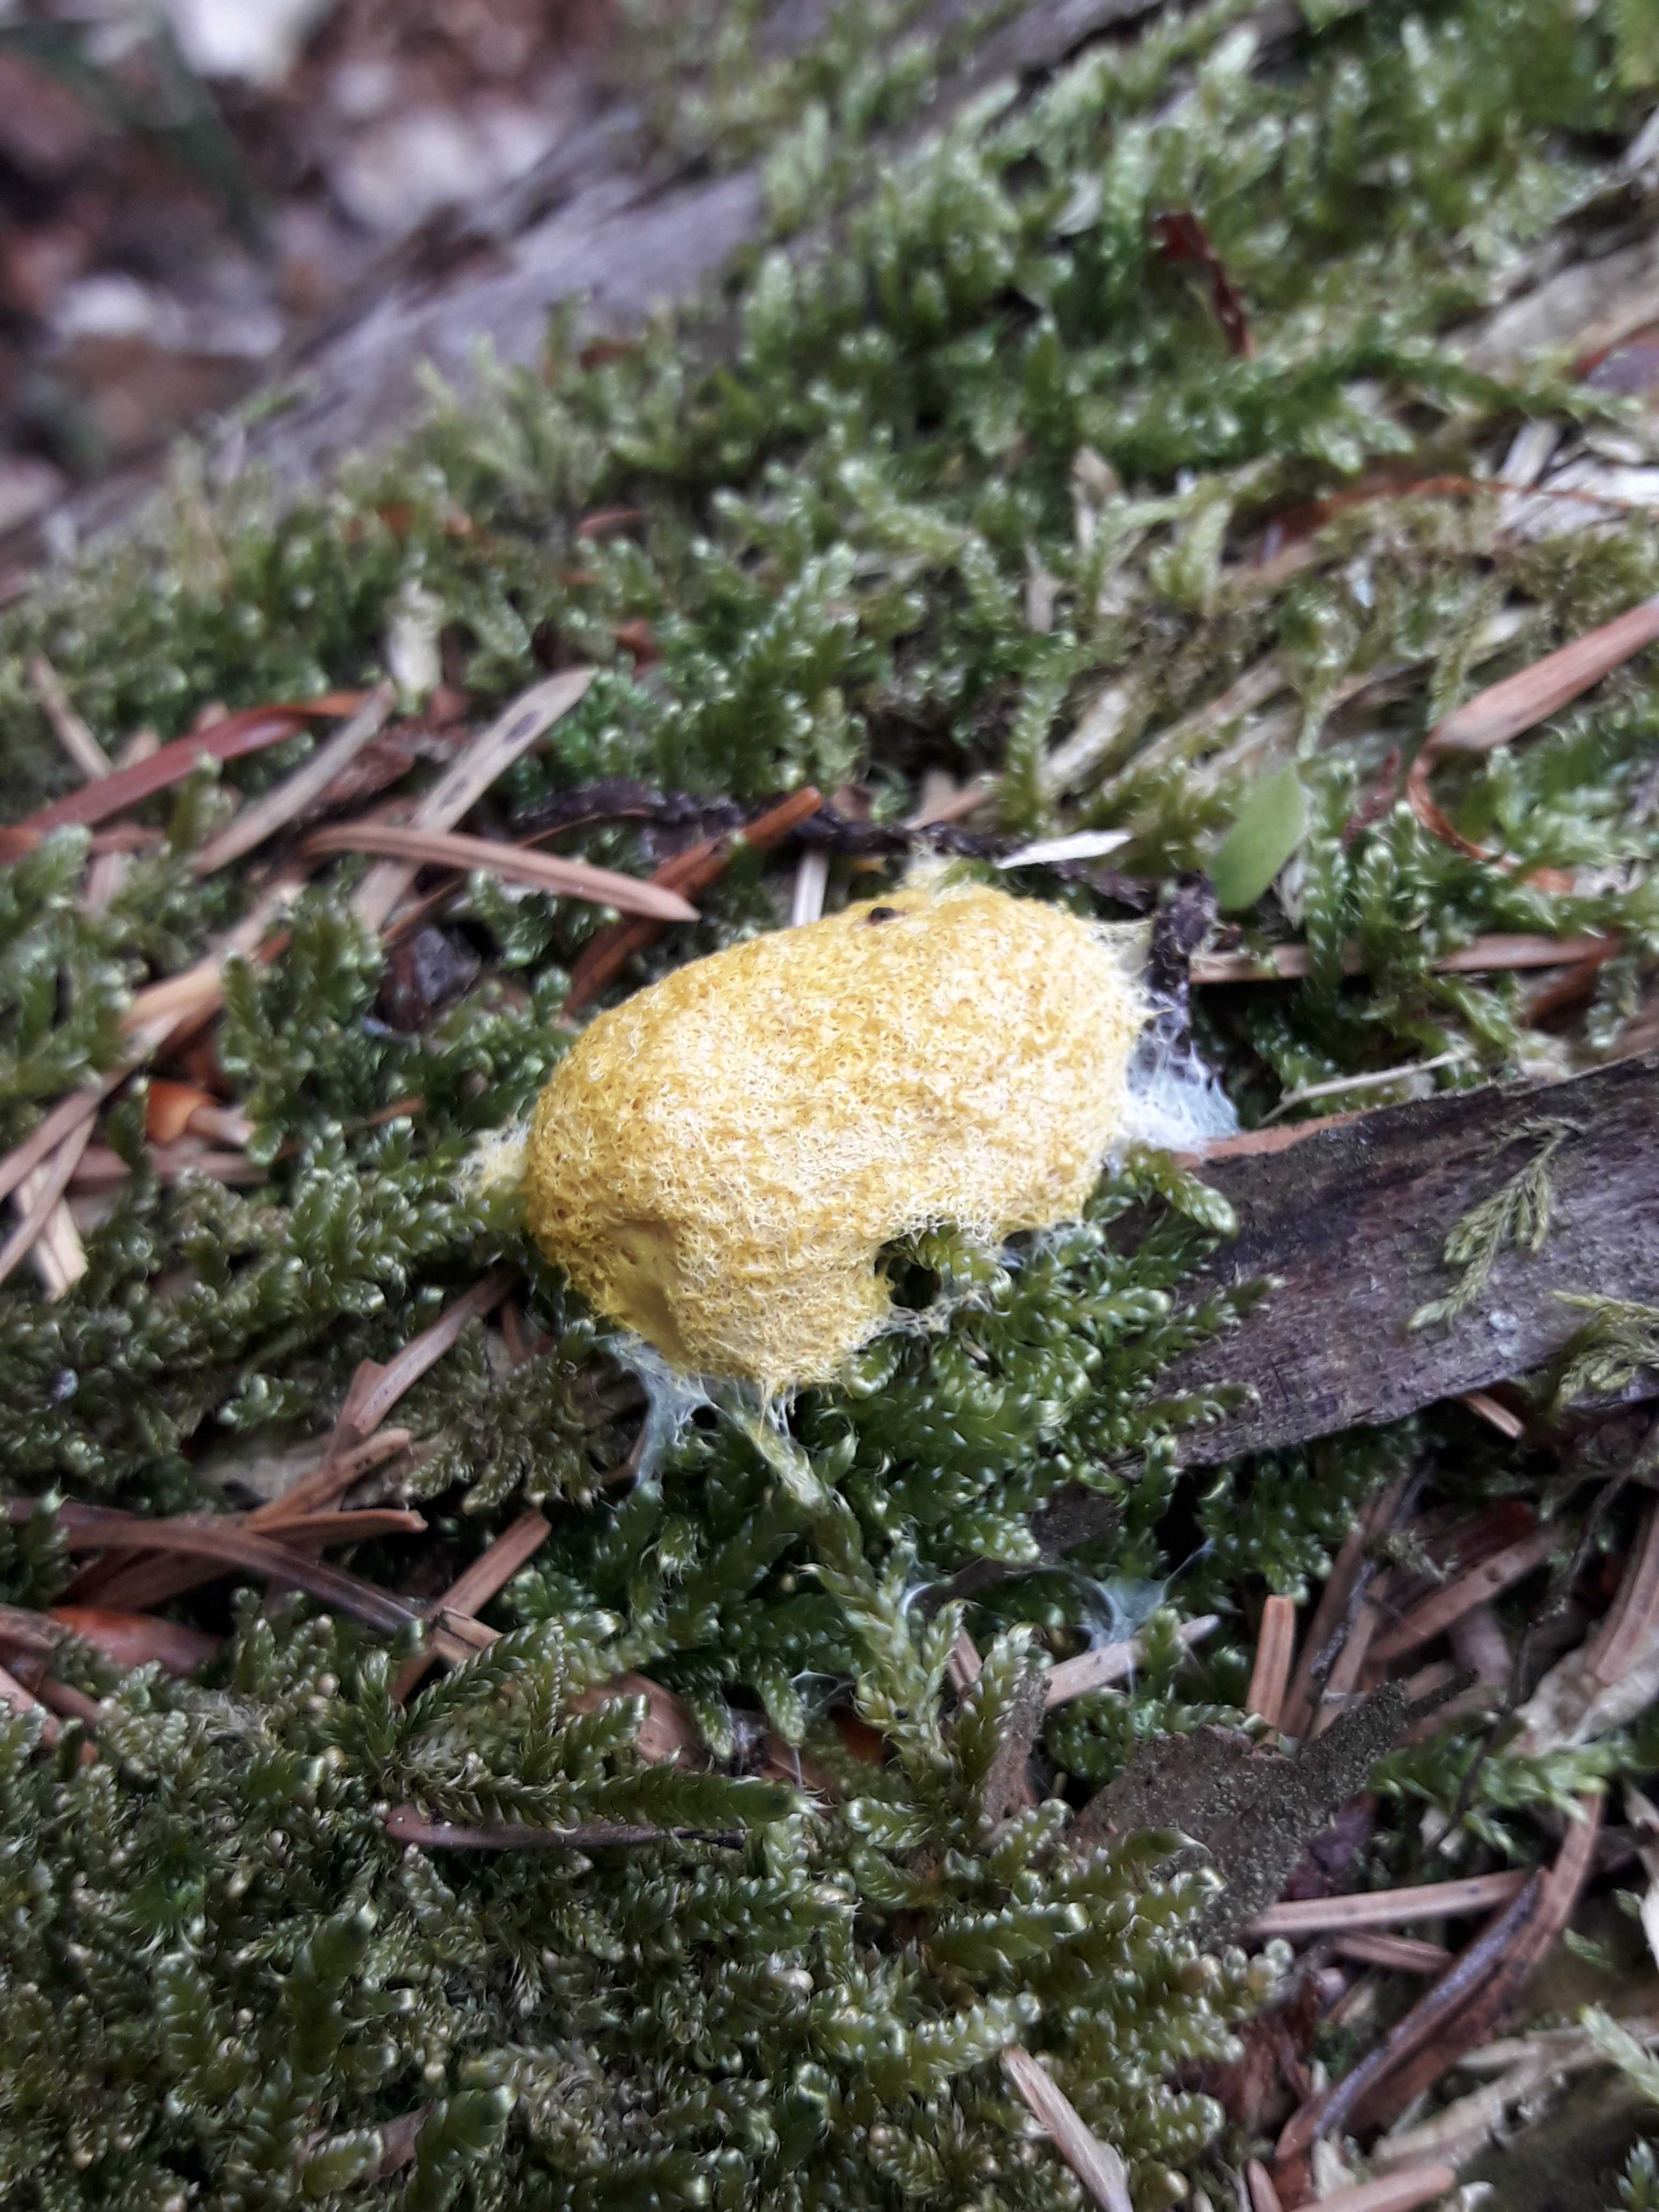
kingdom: Protozoa
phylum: Mycetozoa
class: Myxomycetes
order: Physarales
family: Physaraceae
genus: Fuligo
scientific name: Fuligo septica
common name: gul troldsmør
